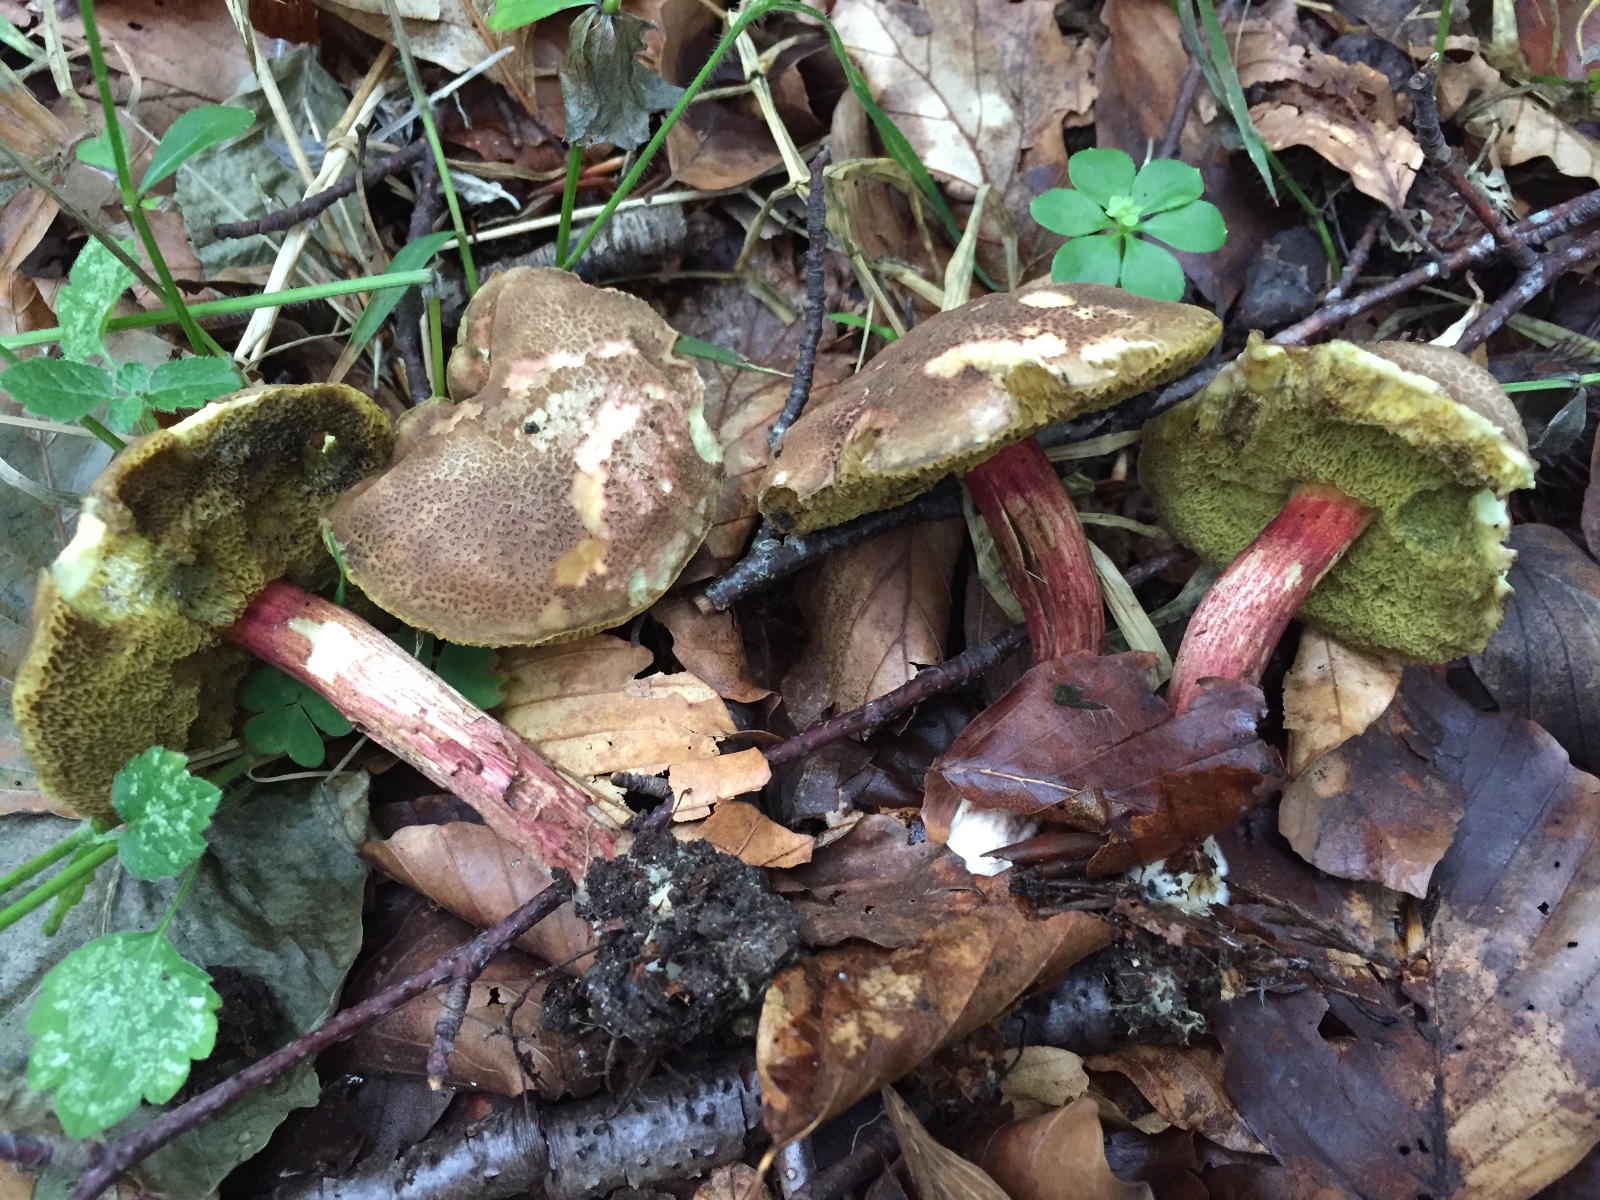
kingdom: Fungi
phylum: Basidiomycota
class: Agaricomycetes
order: Boletales
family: Boletaceae
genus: Xerocomellus
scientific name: Xerocomellus chrysenteron
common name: rødsprukken rørhat
